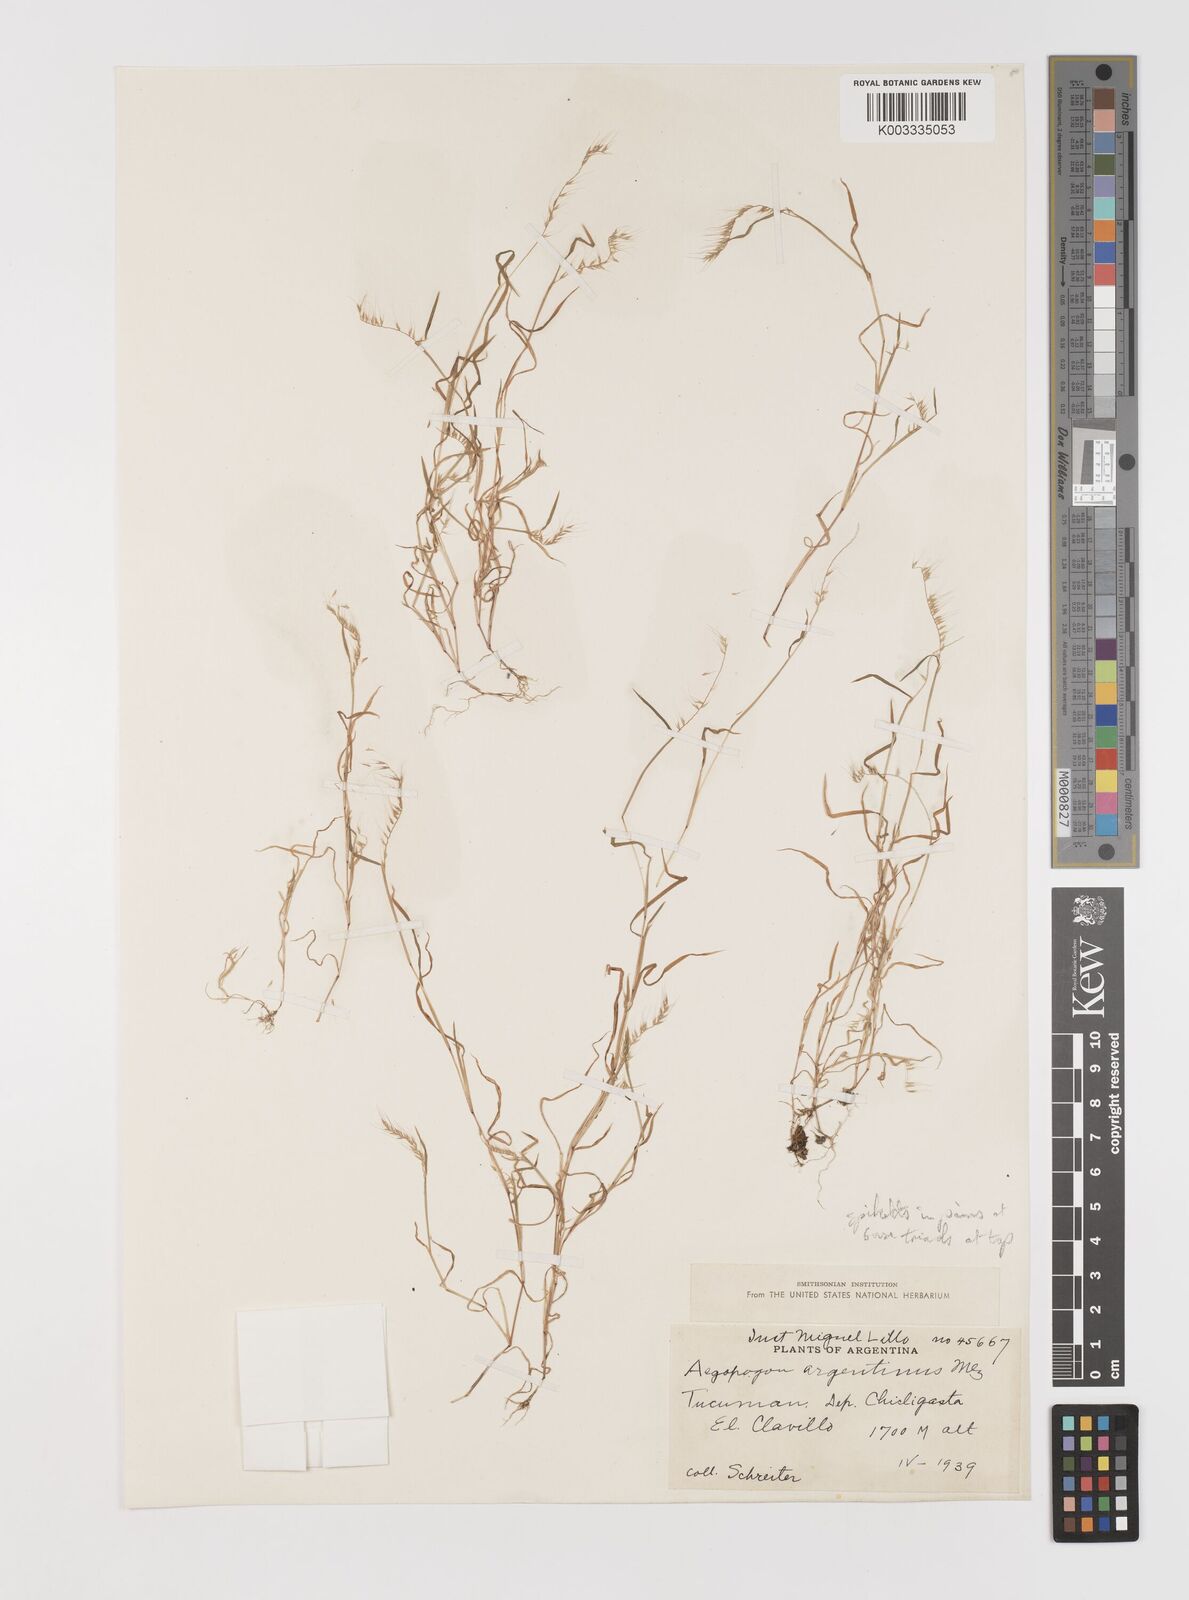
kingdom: Plantae
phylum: Tracheophyta
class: Liliopsida
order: Poales
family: Poaceae
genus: Muhlenbergia
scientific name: Muhlenbergia bryophilus
